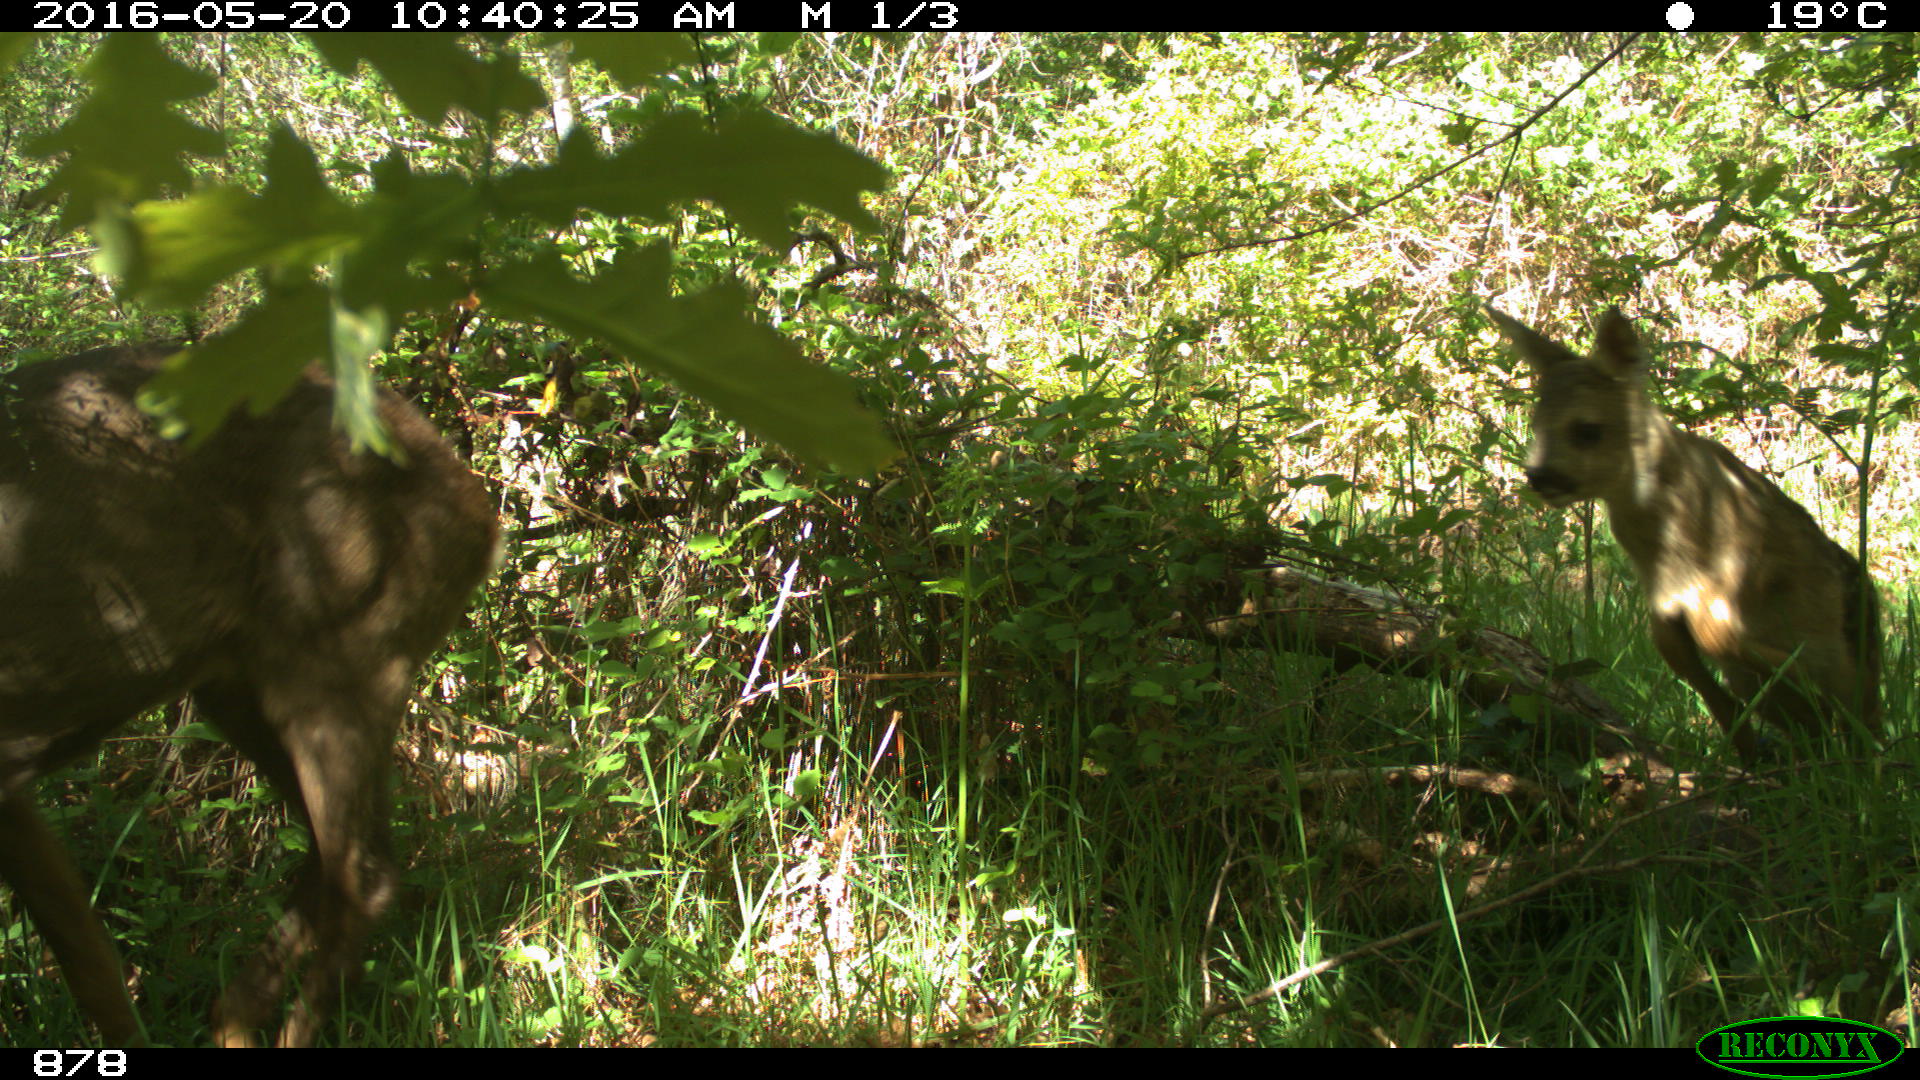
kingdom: Animalia
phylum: Chordata
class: Mammalia
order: Artiodactyla
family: Cervidae
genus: Capreolus
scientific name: Capreolus capreolus
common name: Western roe deer
